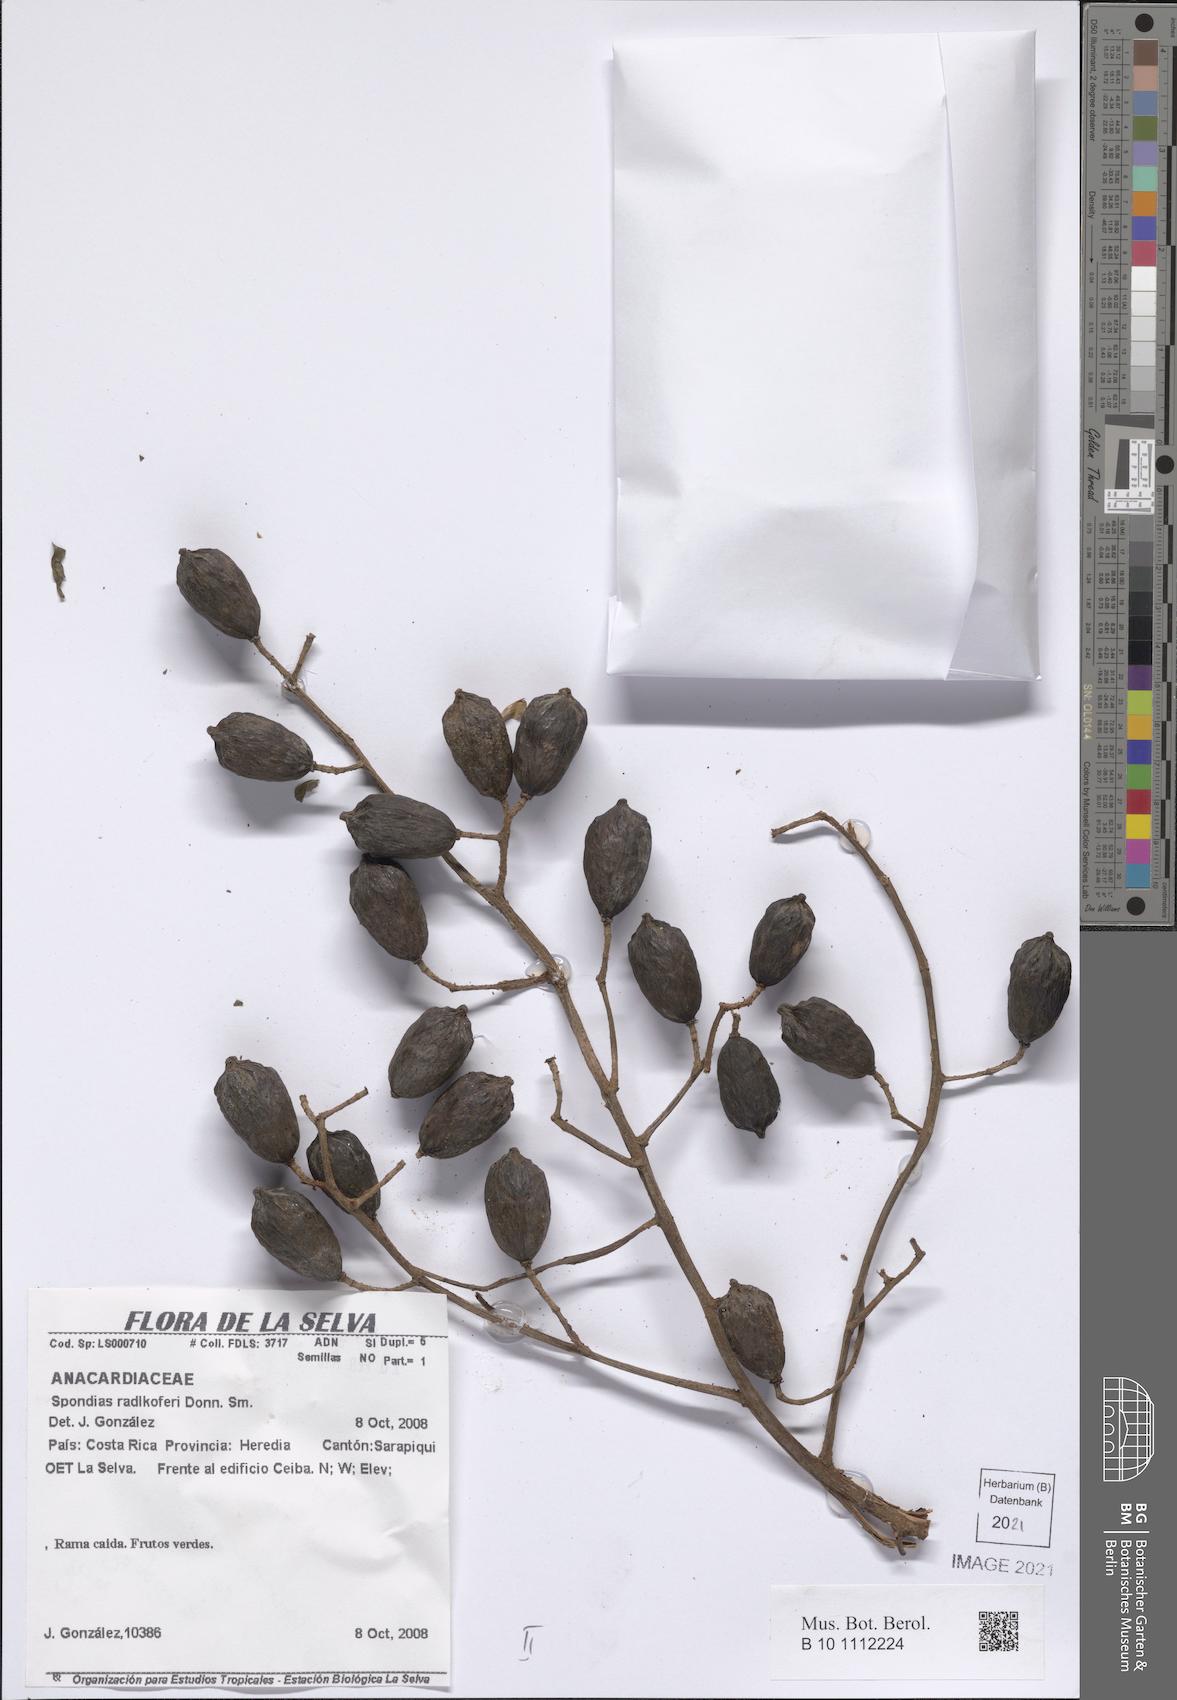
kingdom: Plantae
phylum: Tracheophyta
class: Magnoliopsida
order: Sapindales
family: Anacardiaceae
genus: Spondias
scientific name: Spondias radlkoferi
